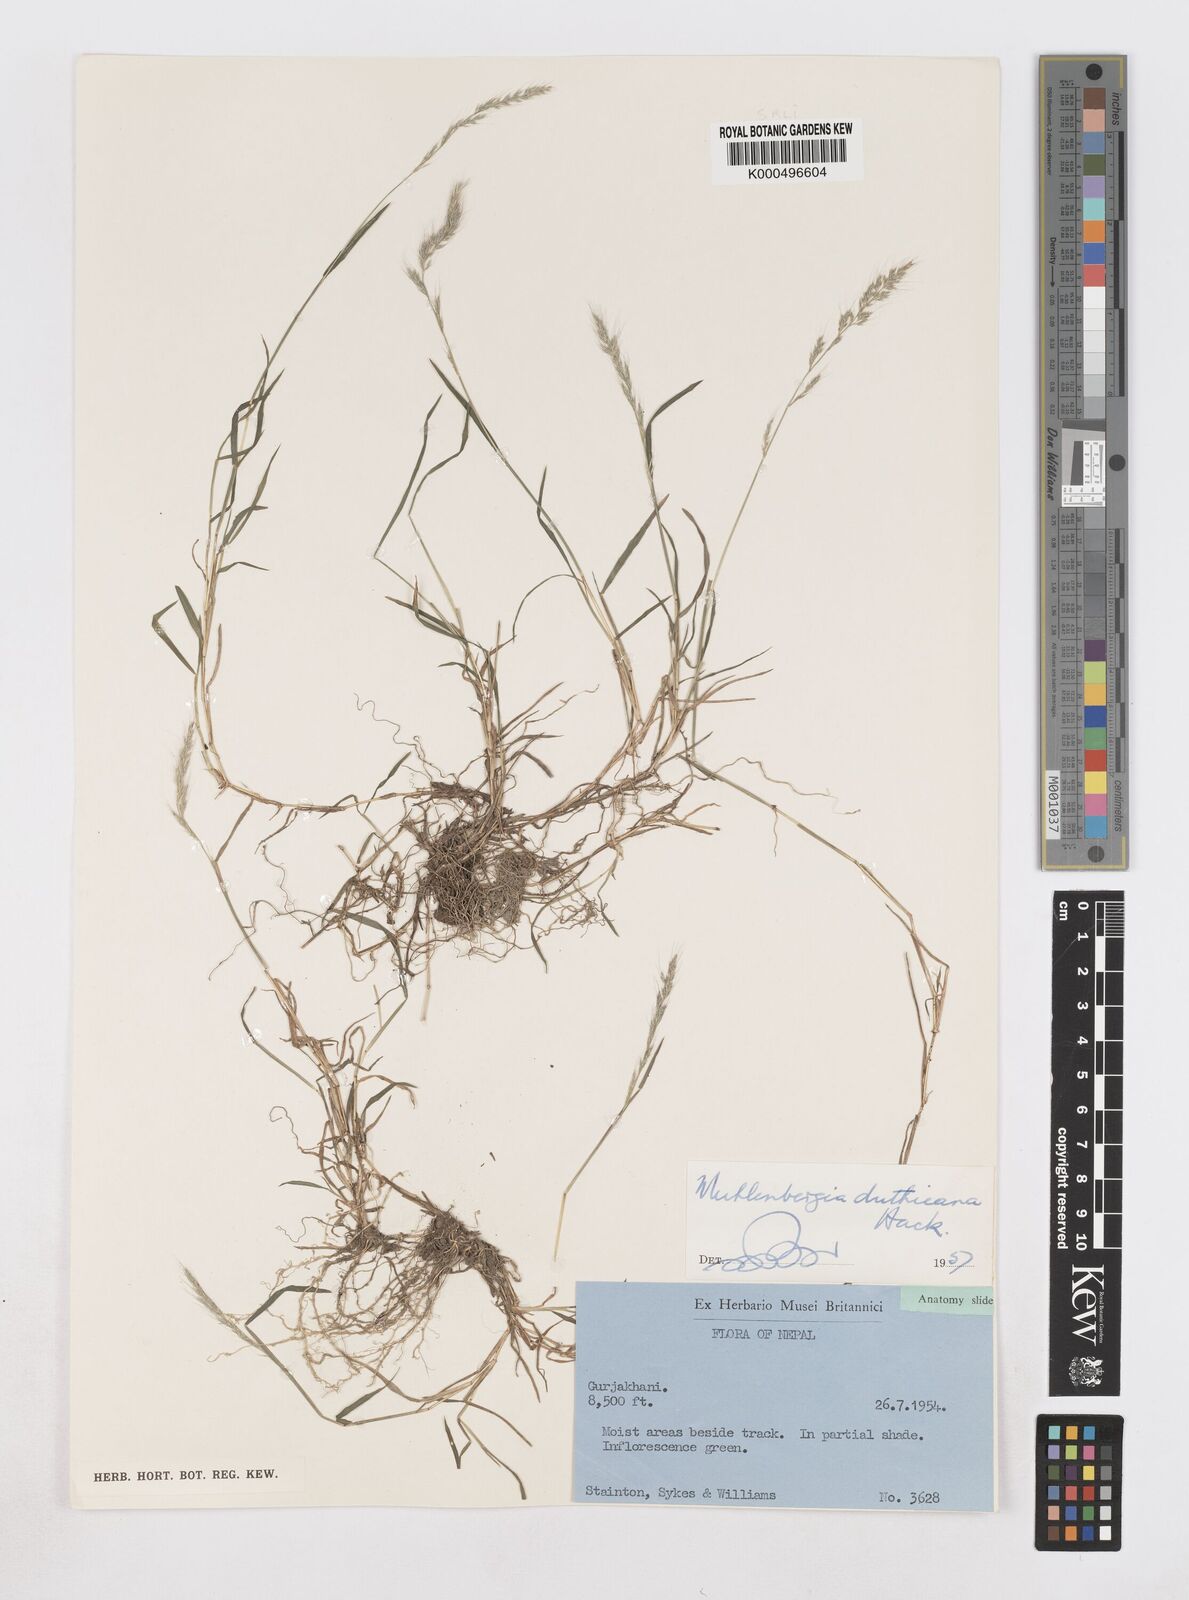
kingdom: Plantae
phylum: Tracheophyta
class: Liliopsida
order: Poales
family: Poaceae
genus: Muhlenbergia
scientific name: Muhlenbergia duthieana
